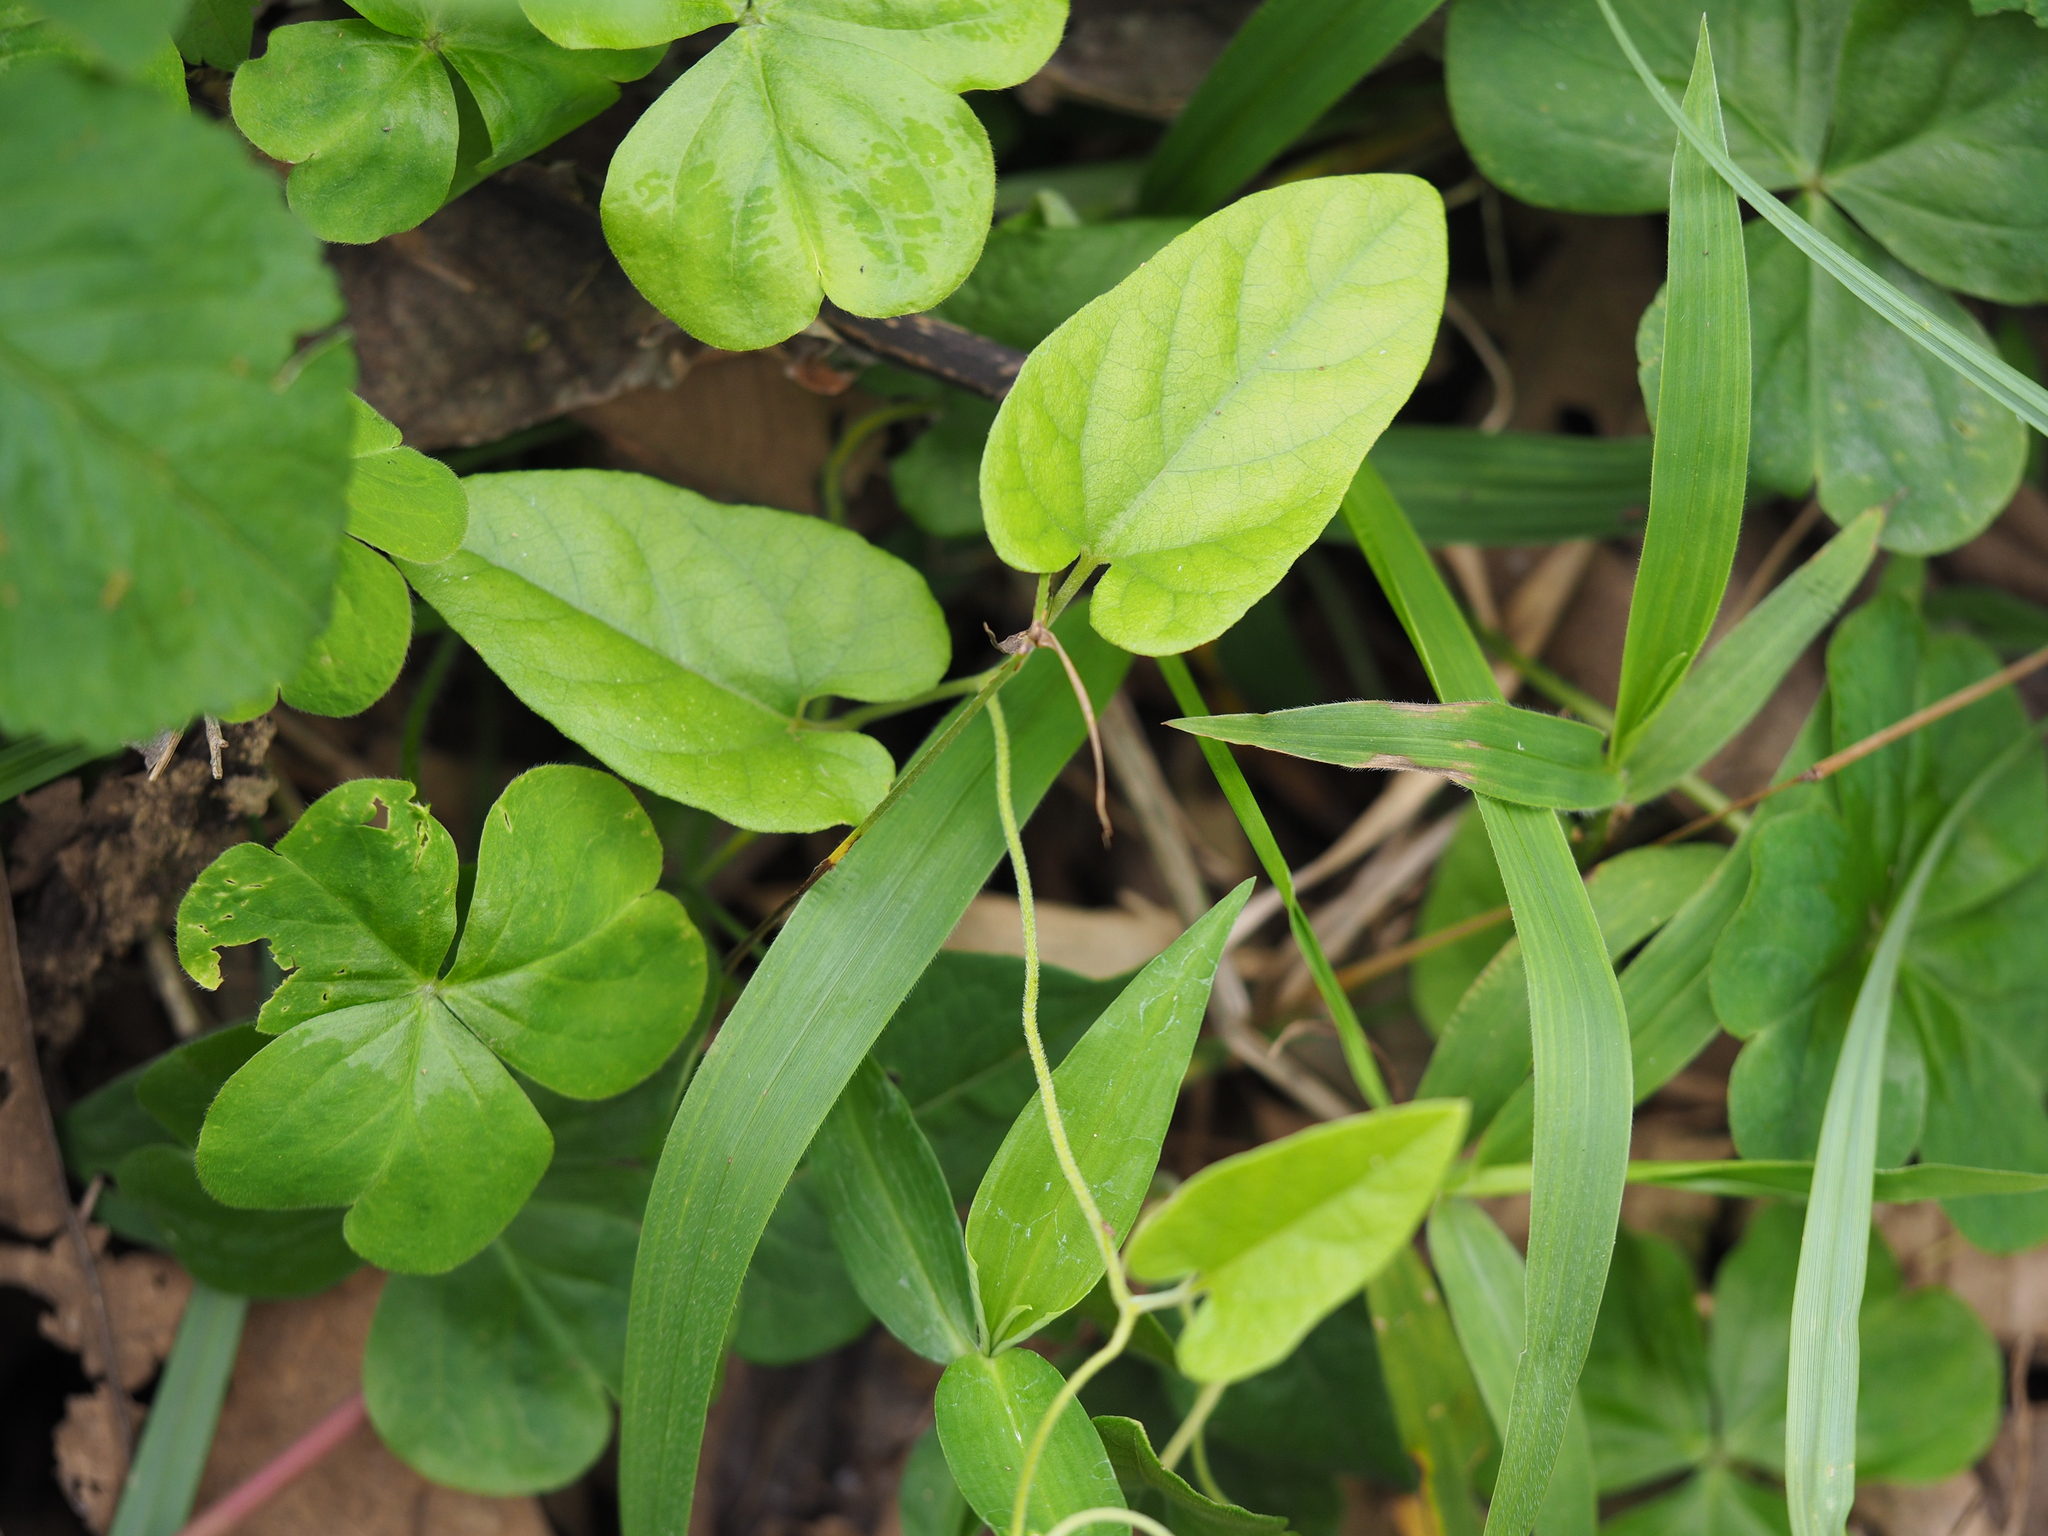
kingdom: Plantae
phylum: Tracheophyta
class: Magnoliopsida
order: Piperales
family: Aristolochiaceae
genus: Isotrema
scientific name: Isotrema kaempferi
